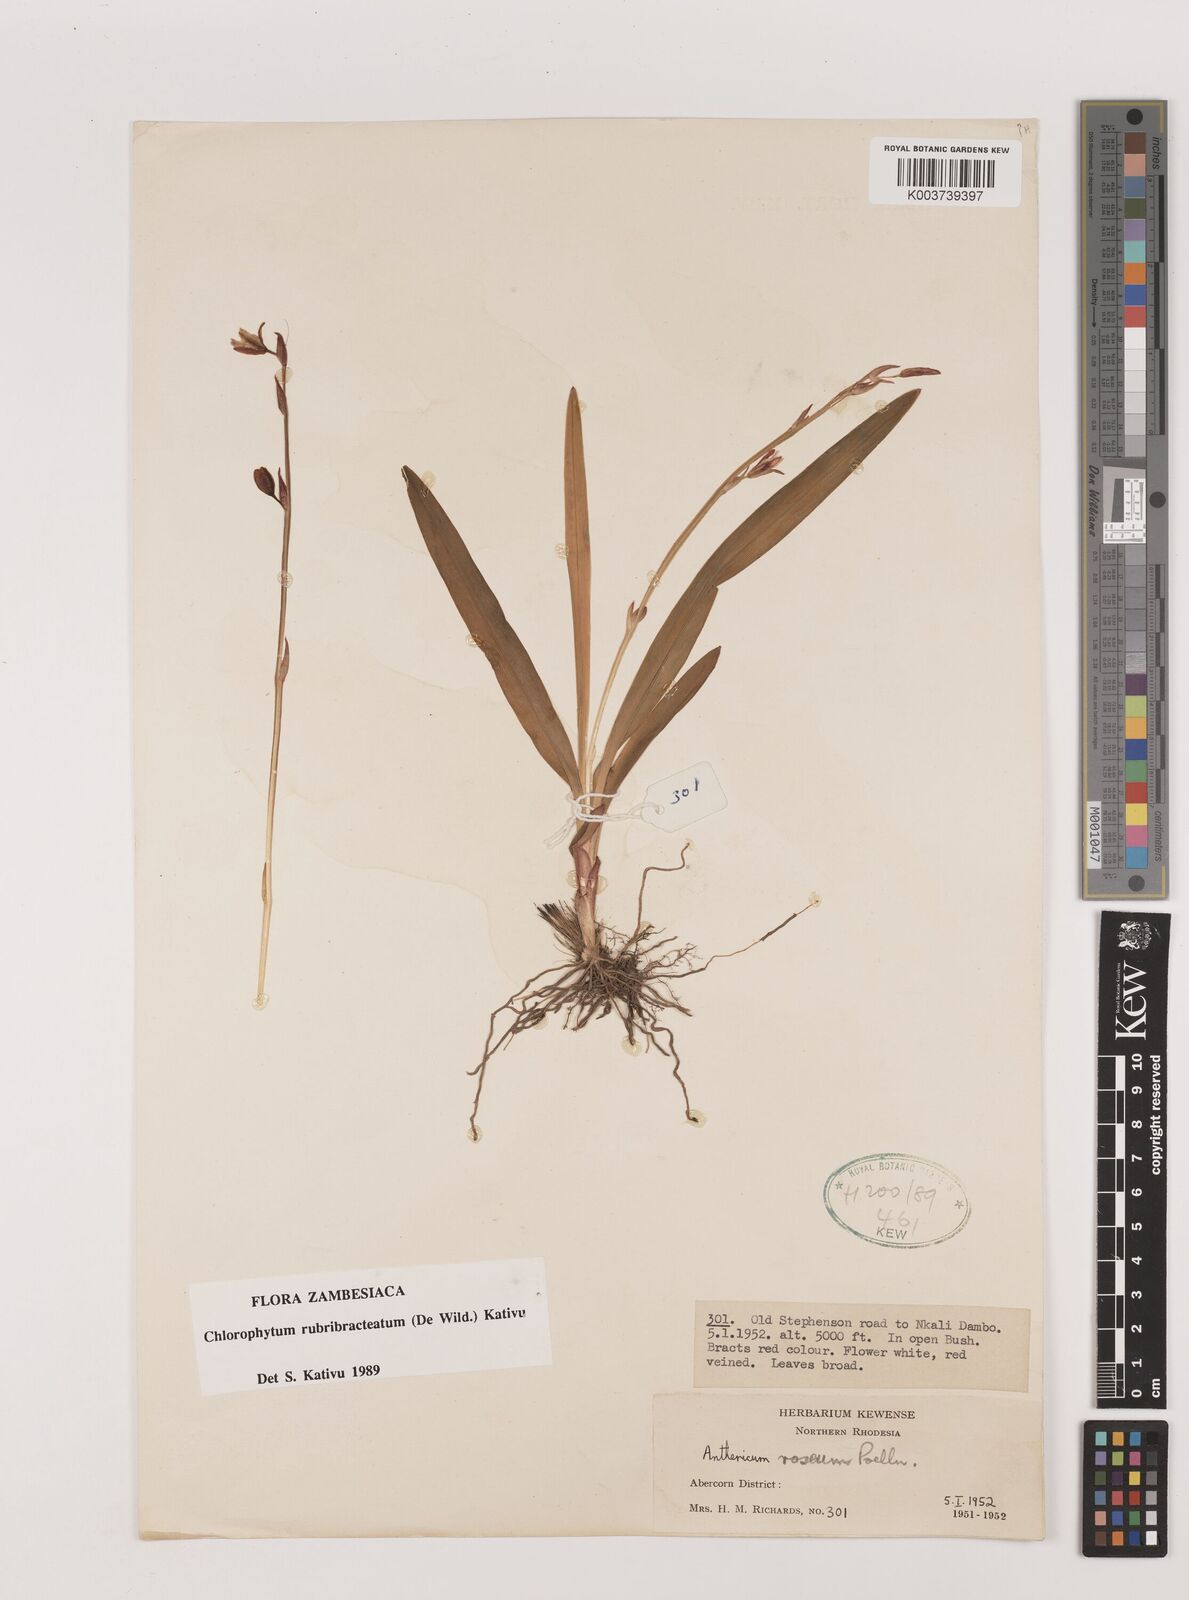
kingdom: Plantae
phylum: Tracheophyta
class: Liliopsida
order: Asparagales
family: Asparagaceae
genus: Chlorophytum
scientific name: Chlorophytum rubribracteatum
